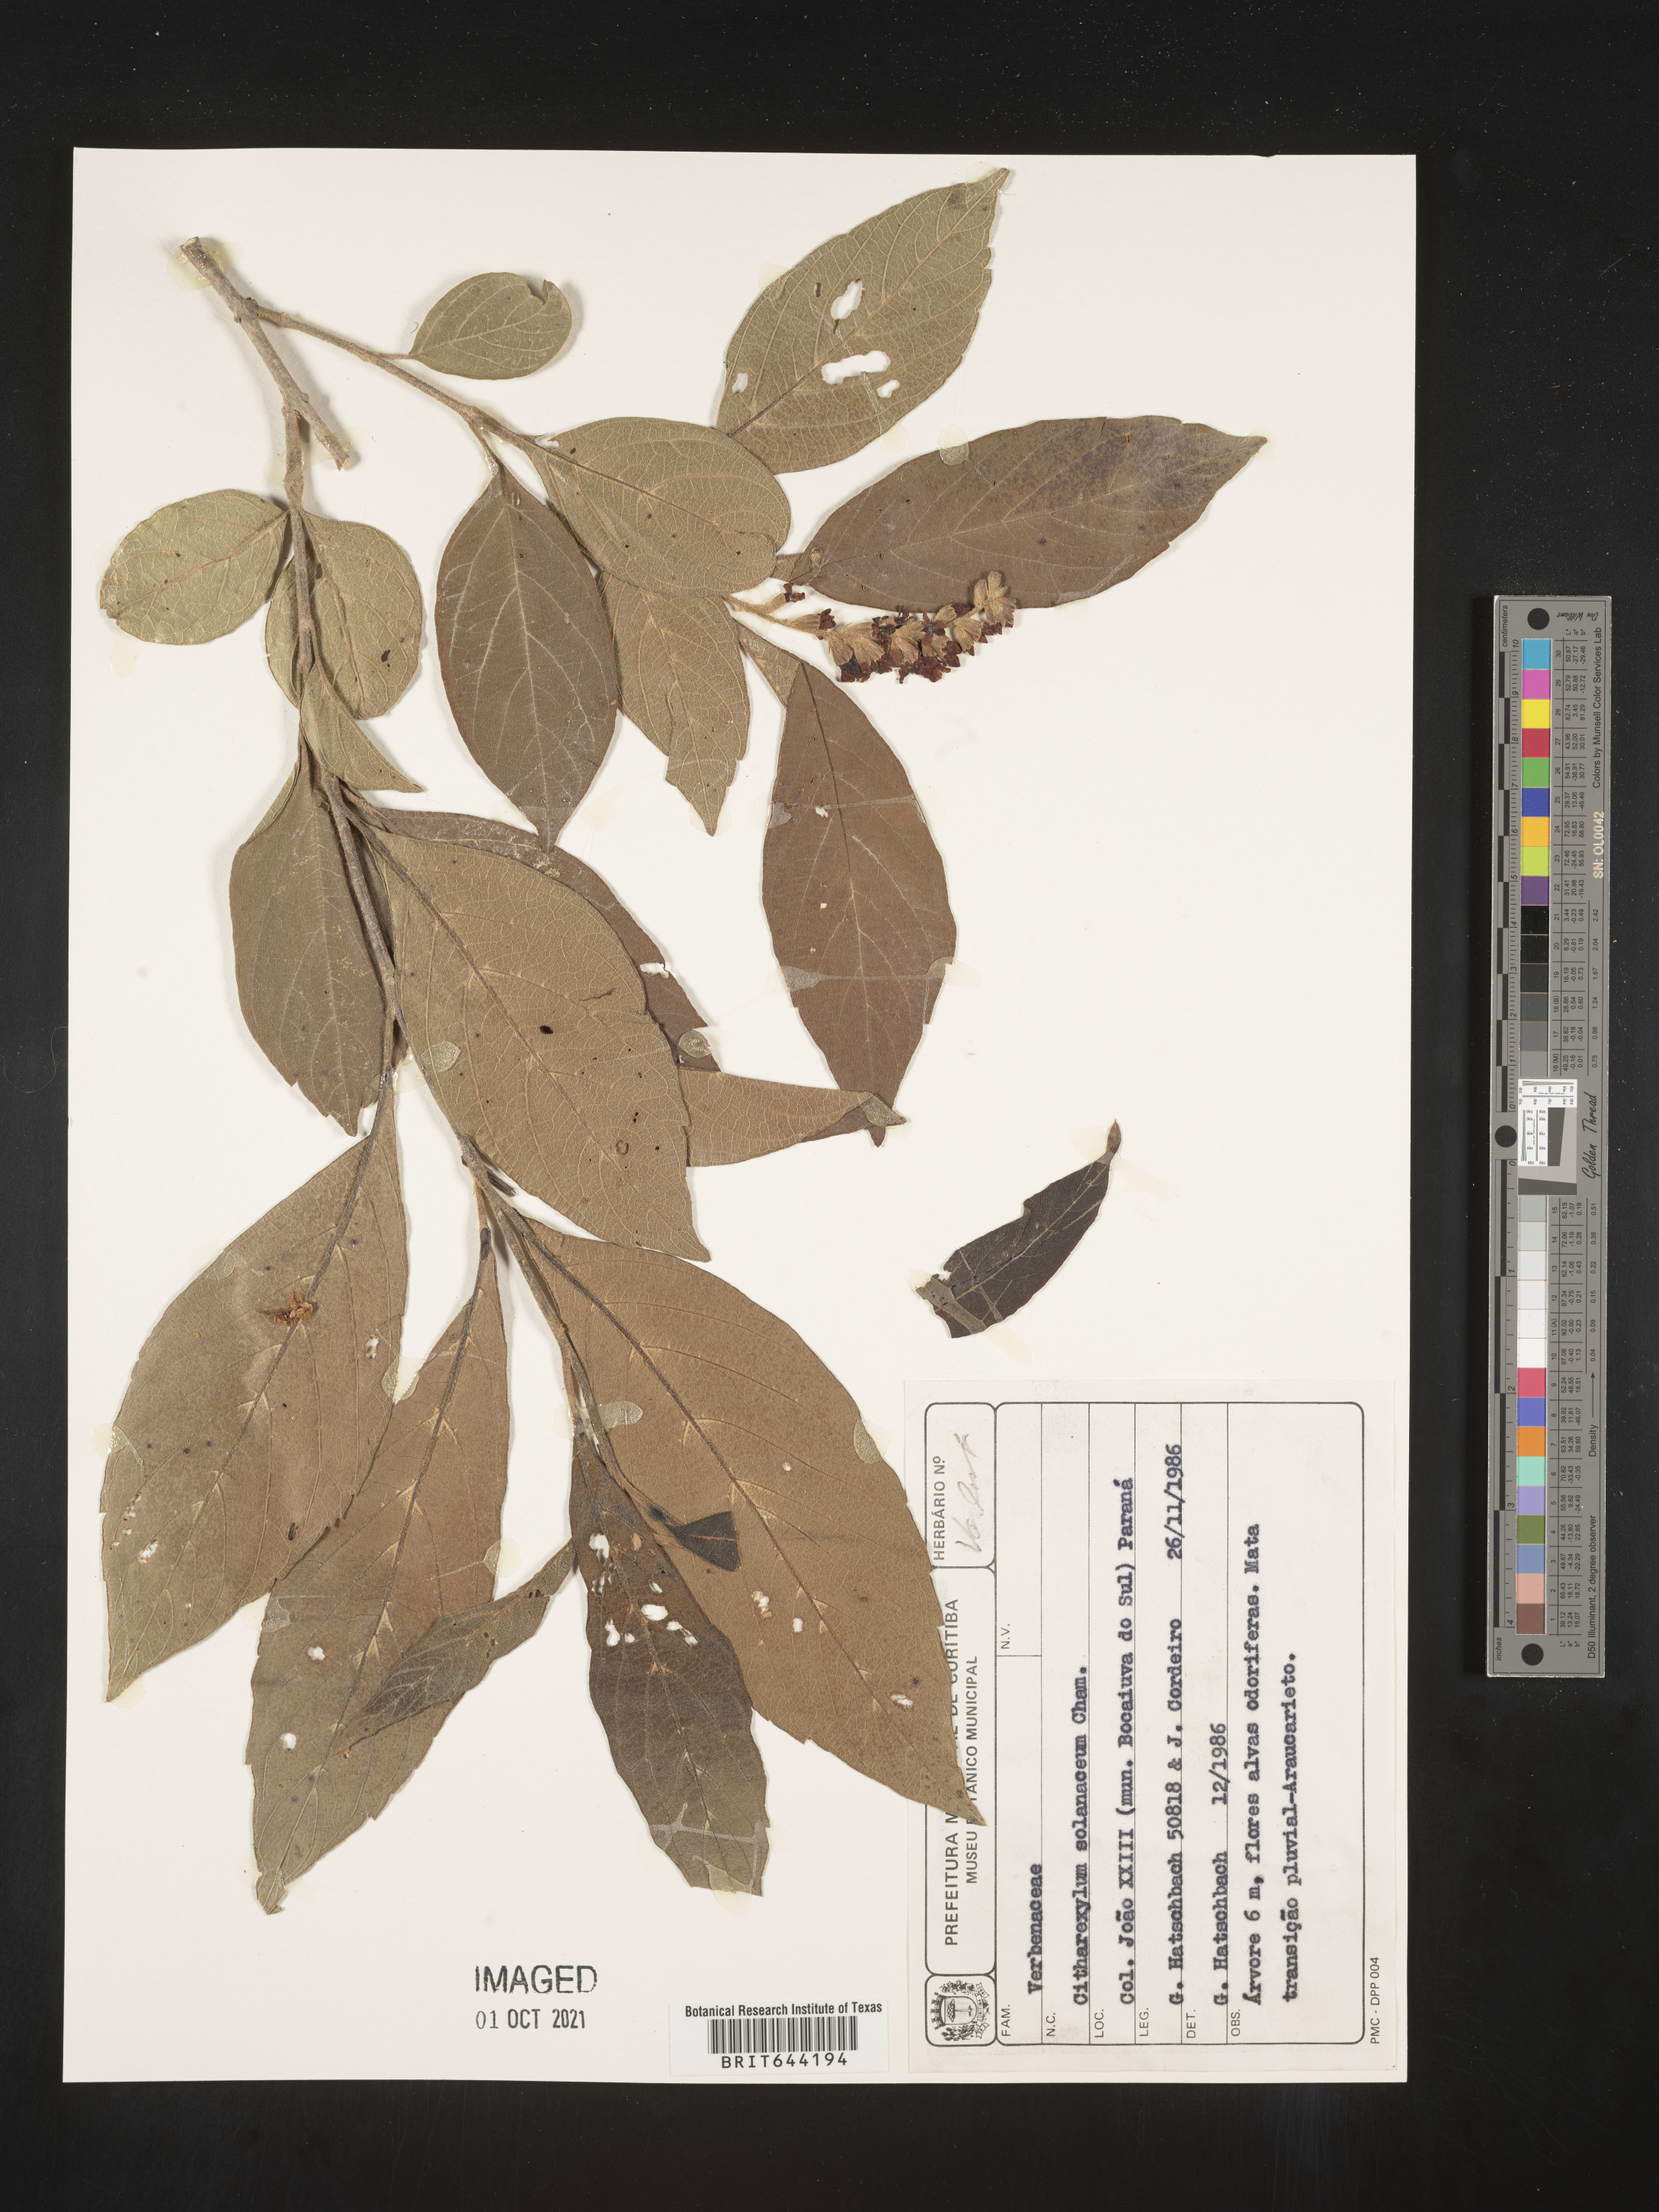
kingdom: Plantae
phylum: Tracheophyta
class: Magnoliopsida
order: Lamiales
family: Verbenaceae
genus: Citharexylum
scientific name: Citharexylum
